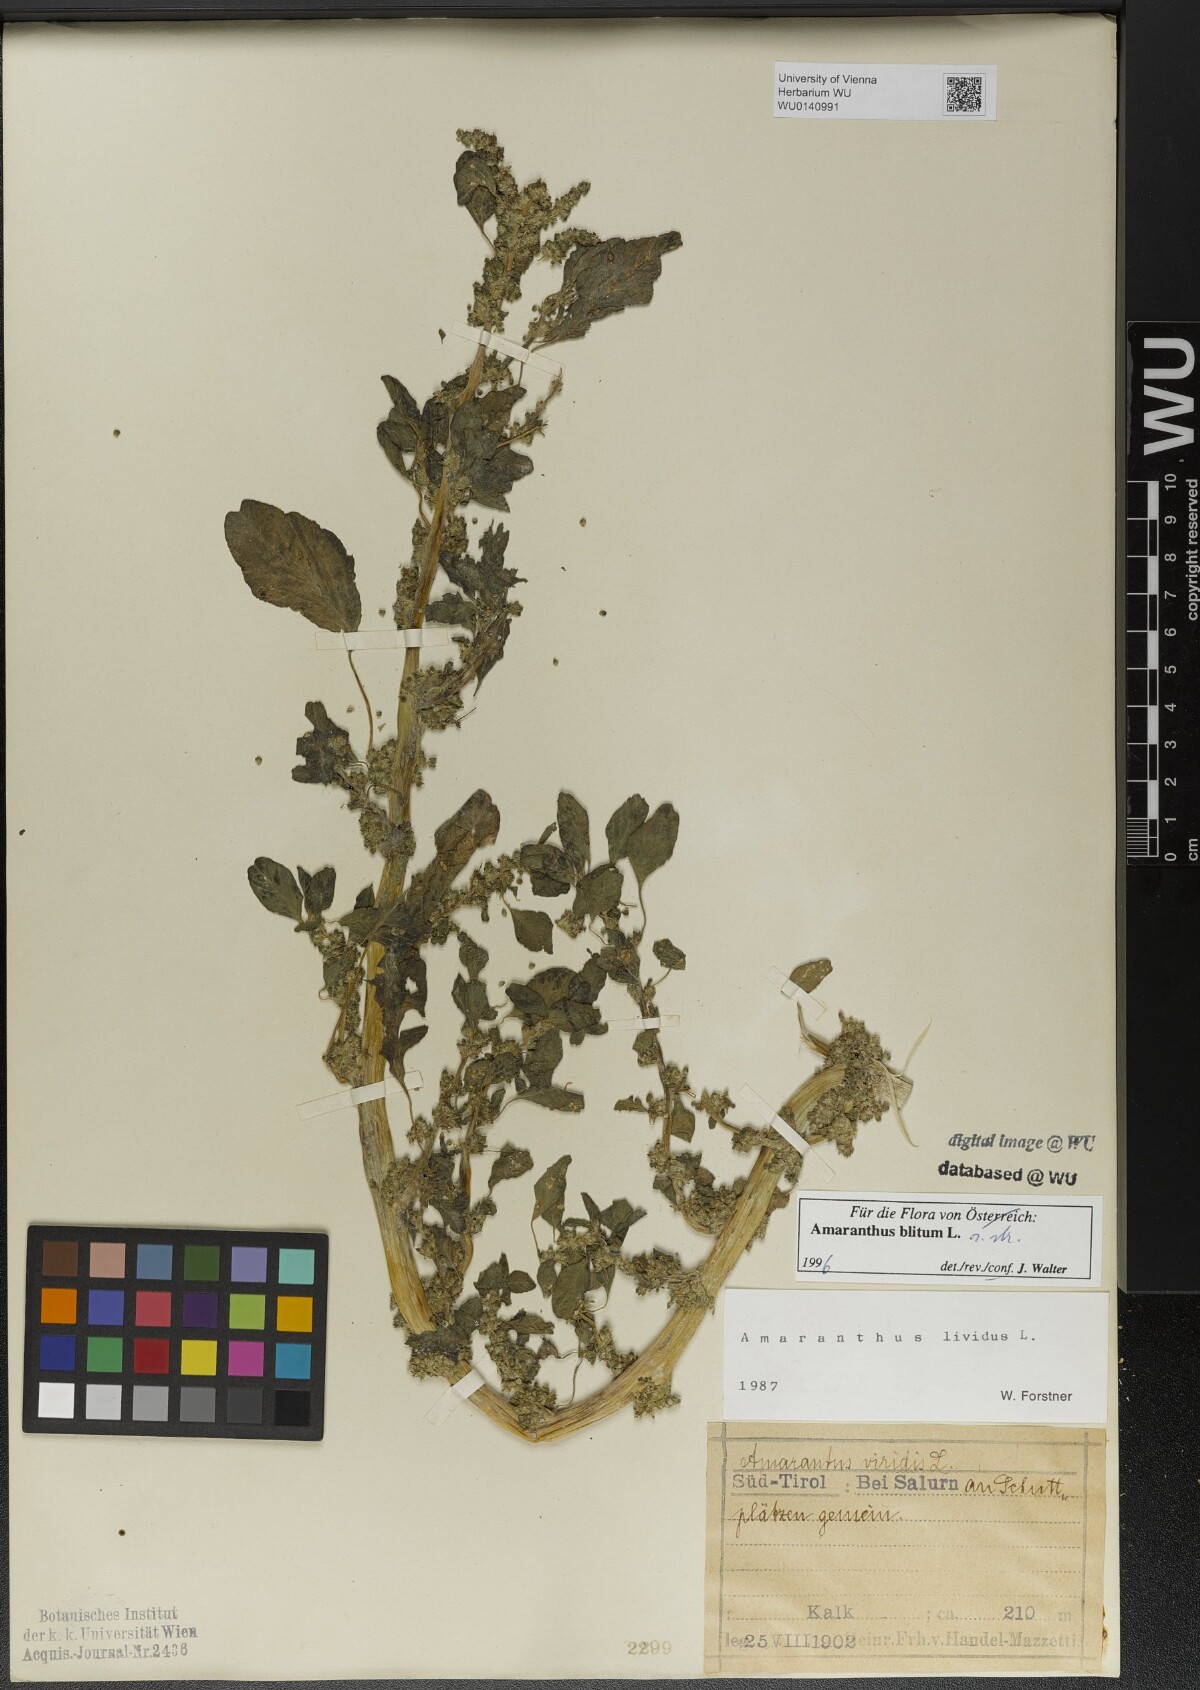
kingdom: Plantae
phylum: Tracheophyta
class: Magnoliopsida
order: Caryophyllales
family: Amaranthaceae
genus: Amaranthus
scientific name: Amaranthus blitum
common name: Purple amaranth
